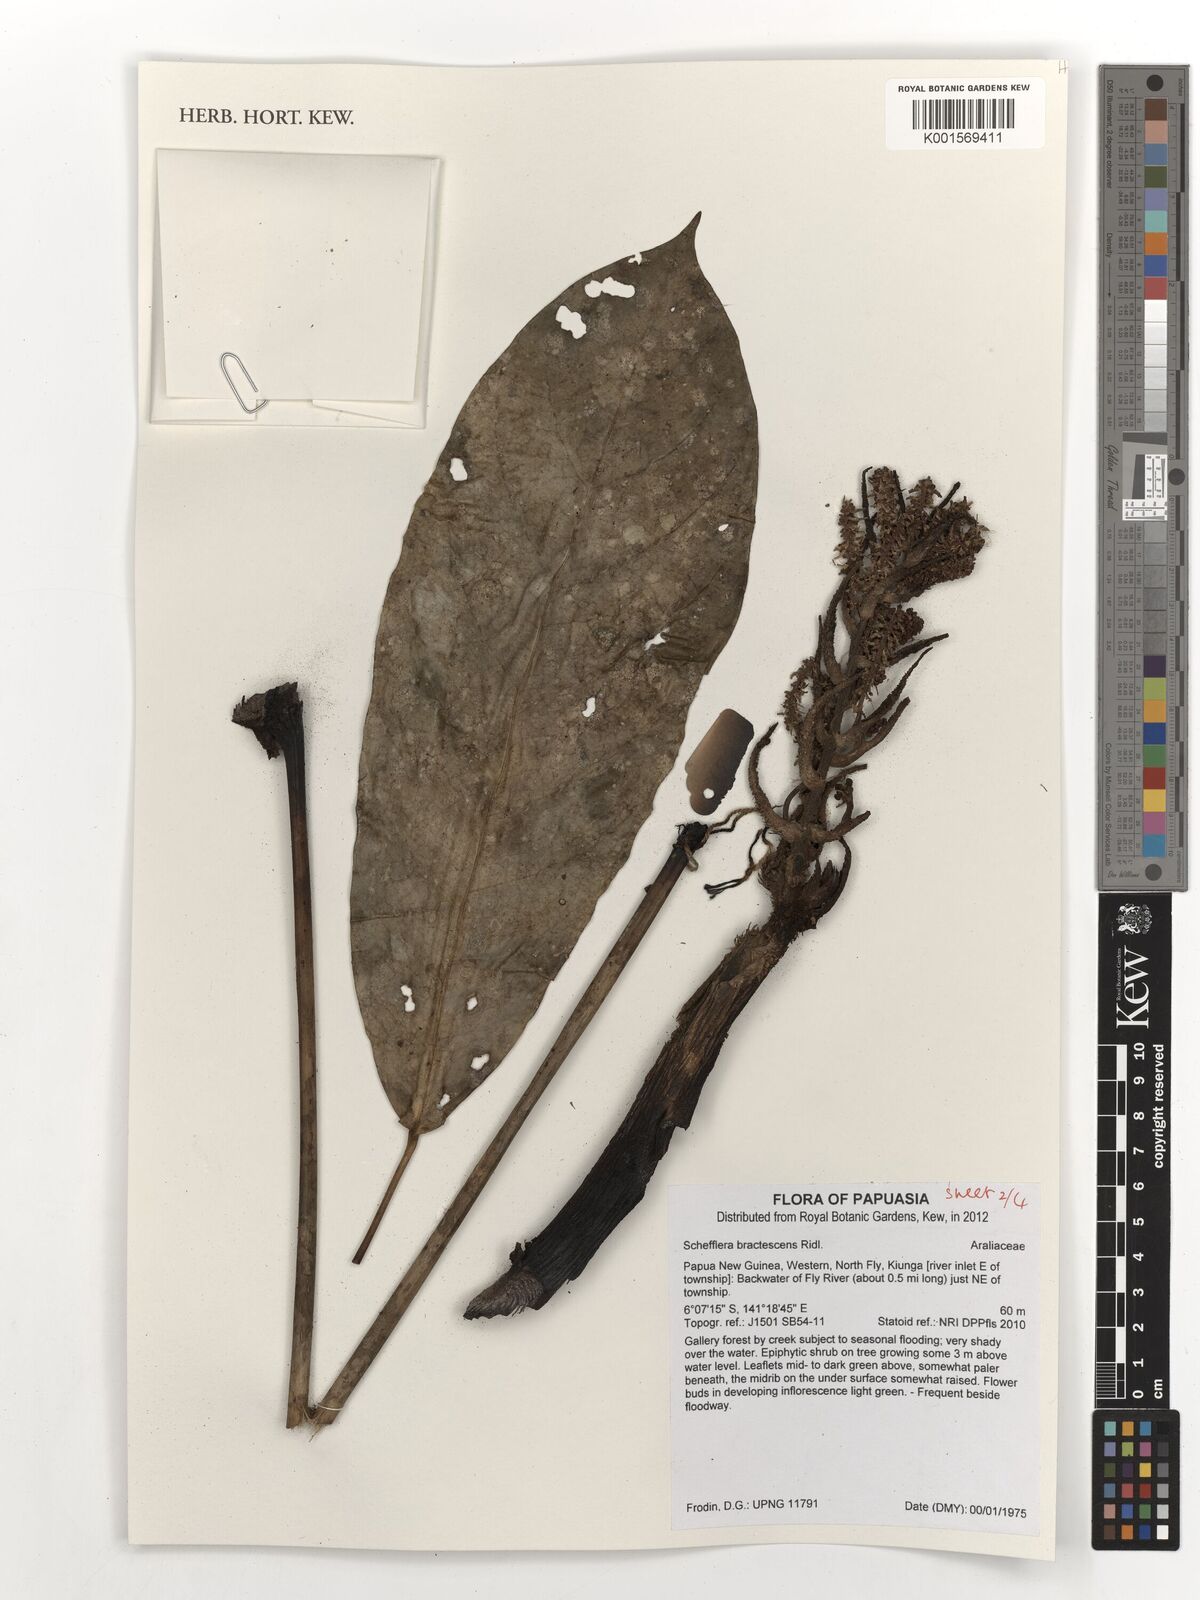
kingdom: Plantae
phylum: Tracheophyta
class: Magnoliopsida
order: Apiales
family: Araliaceae
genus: Heptapleurum
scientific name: Heptapleurum bractescens
